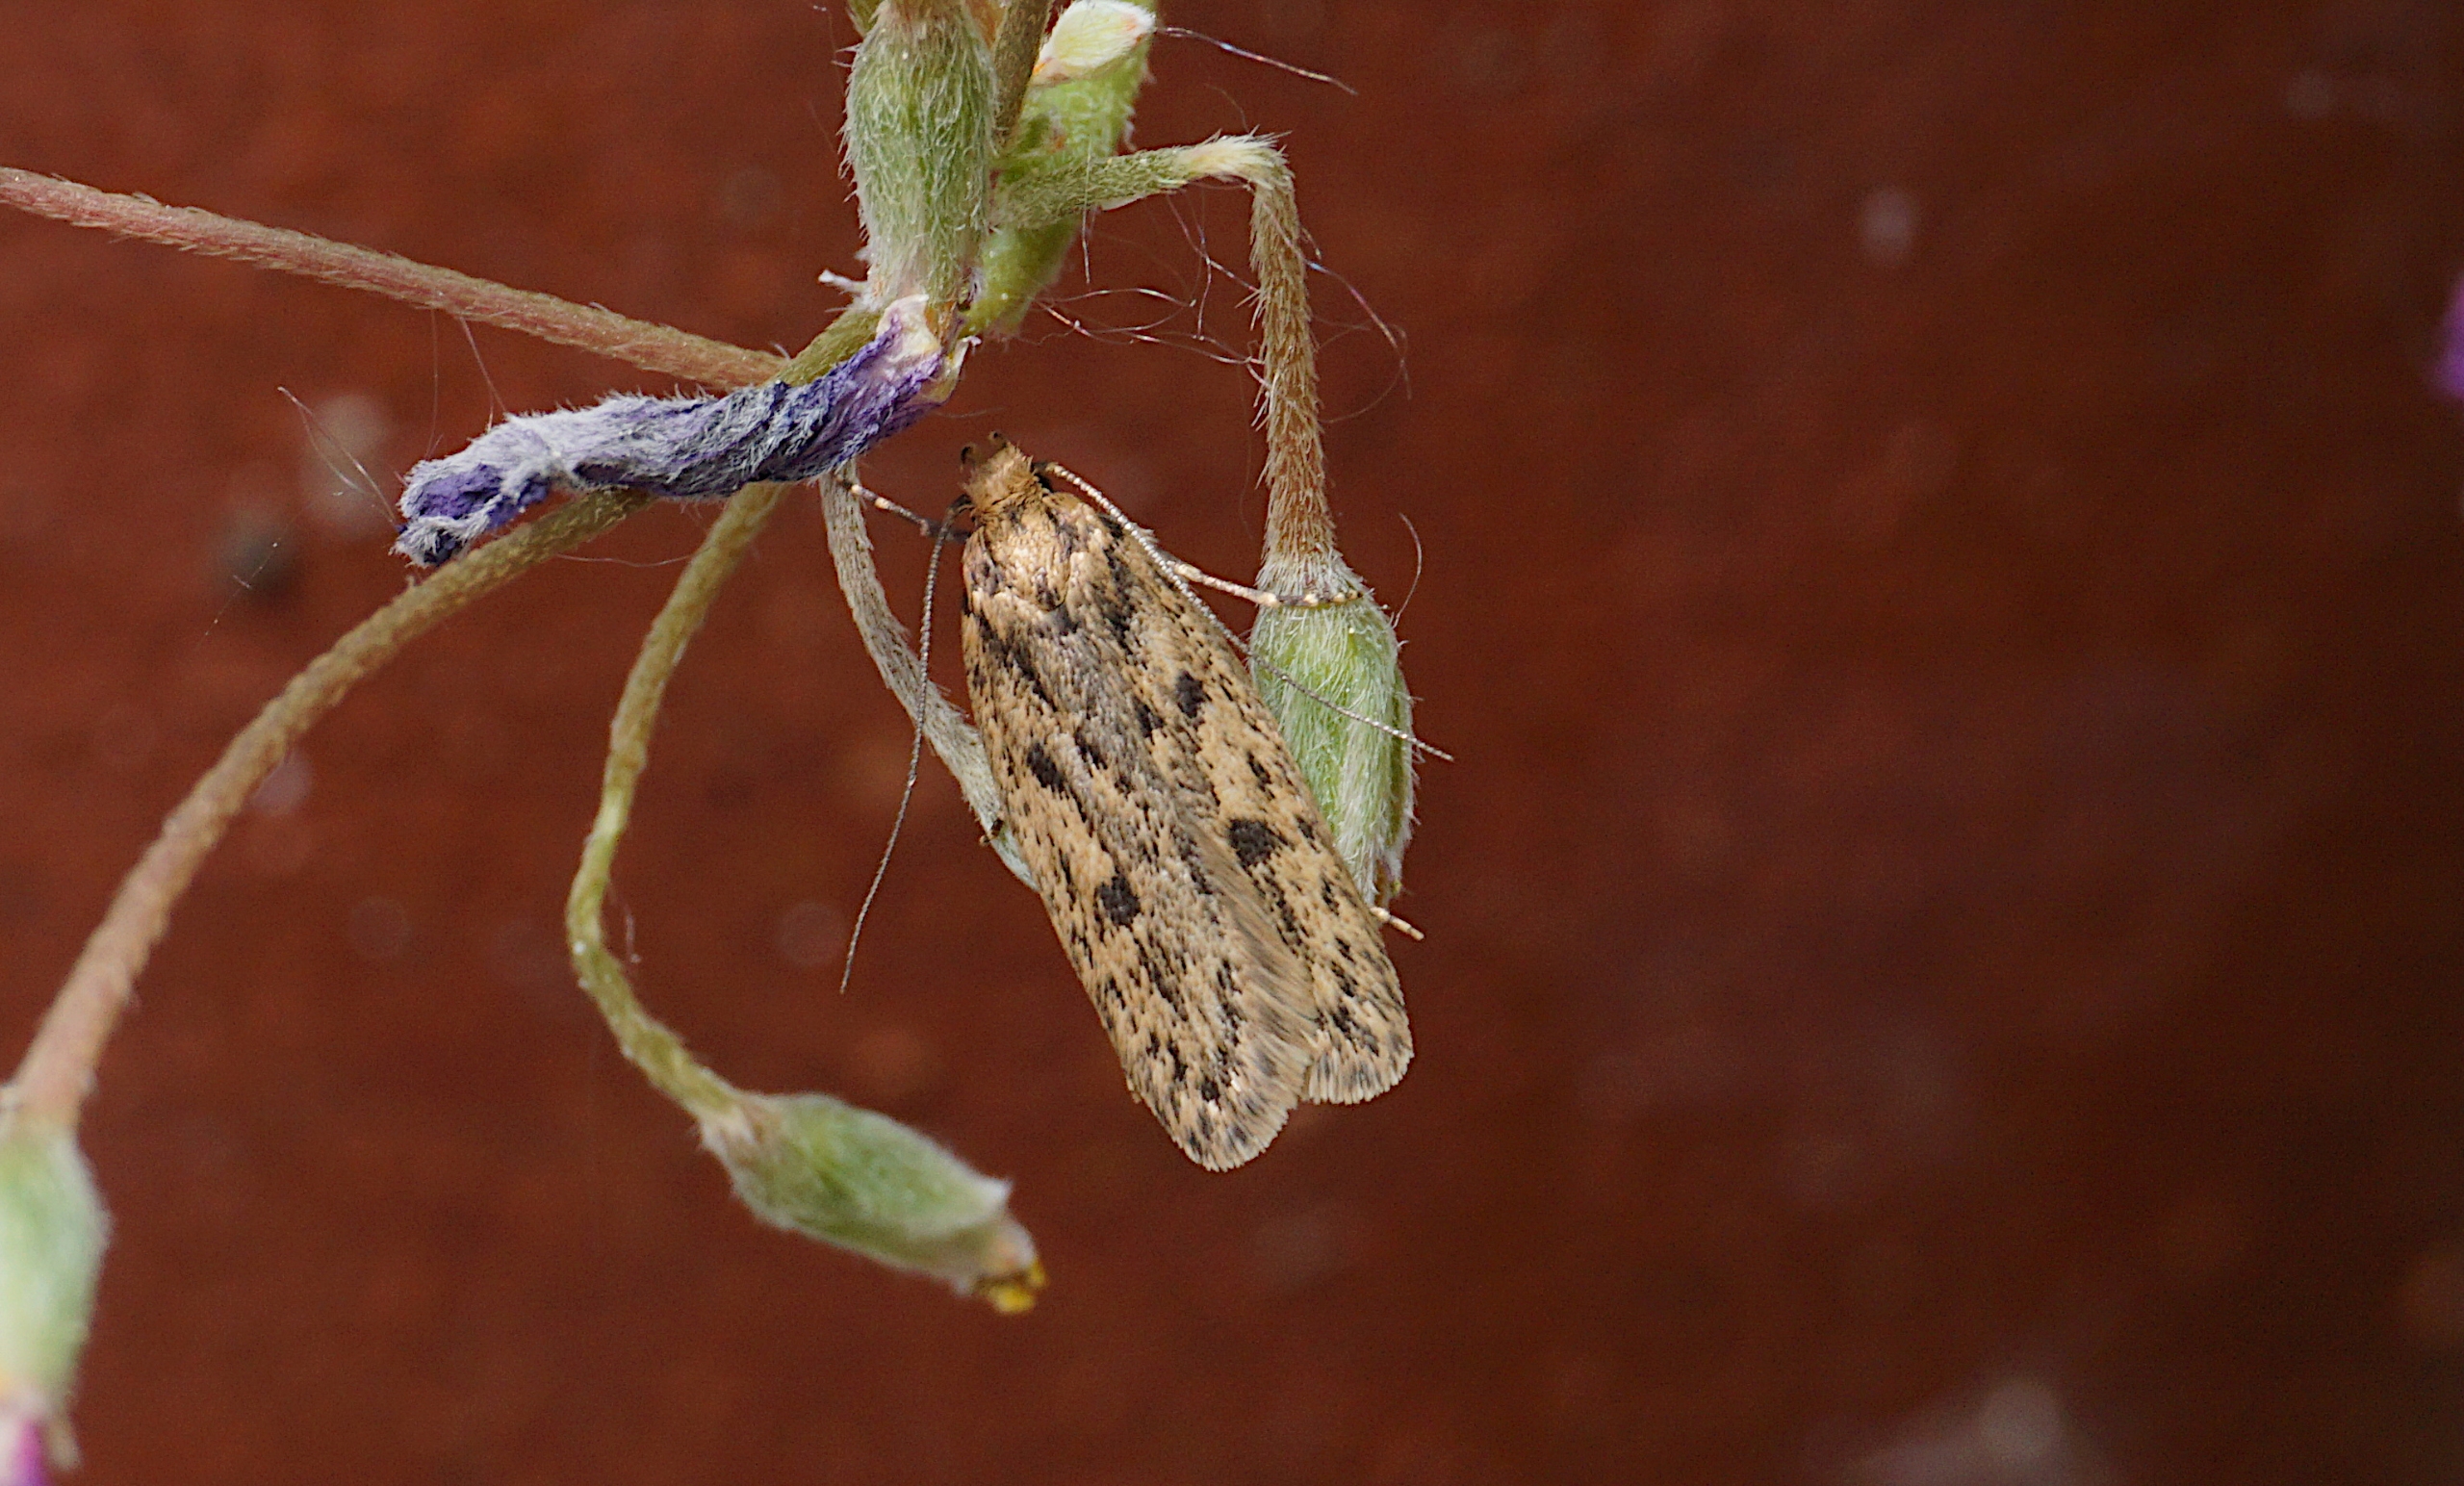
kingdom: Animalia
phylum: Arthropoda
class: Insecta
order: Lepidoptera
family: Oecophoridae
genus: Hofmannophila
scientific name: Hofmannophila pseudospretella
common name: Frømøl
